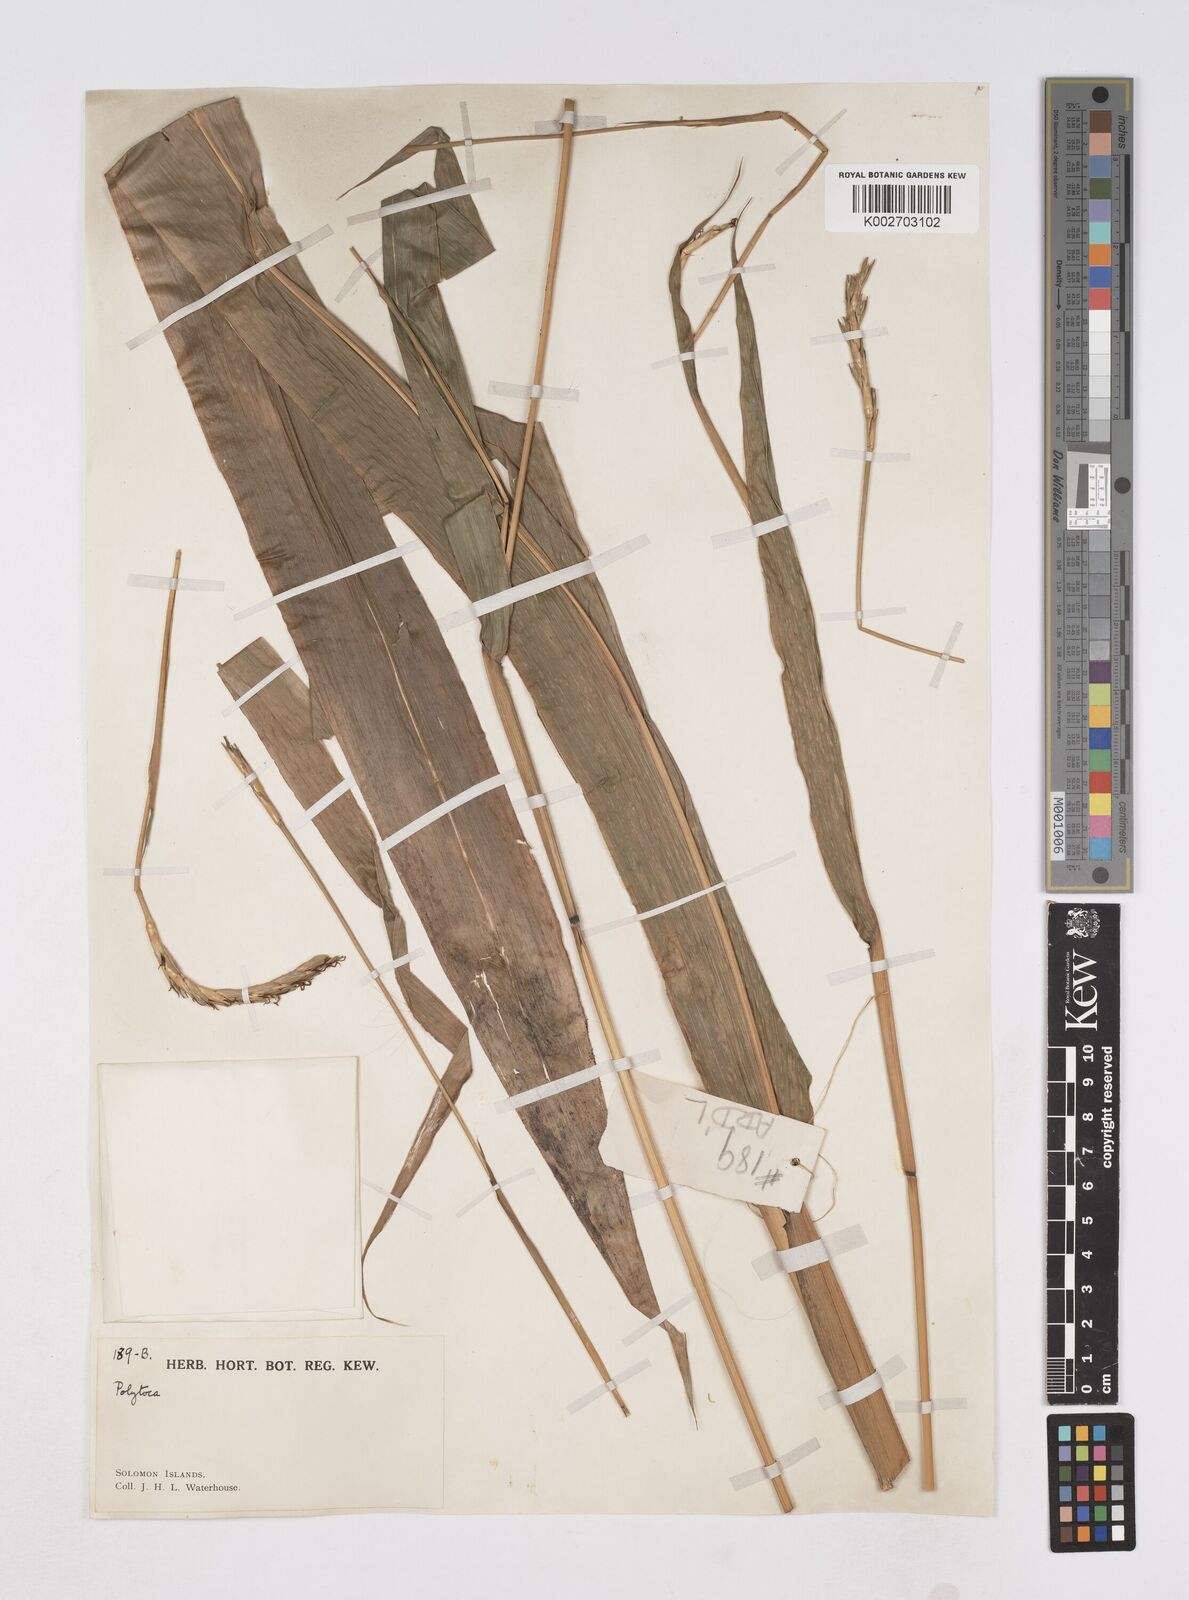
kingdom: Plantae
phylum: Tracheophyta
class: Liliopsida
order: Poales
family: Poaceae
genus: Polytoca
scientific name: Polytoca macrophylla
